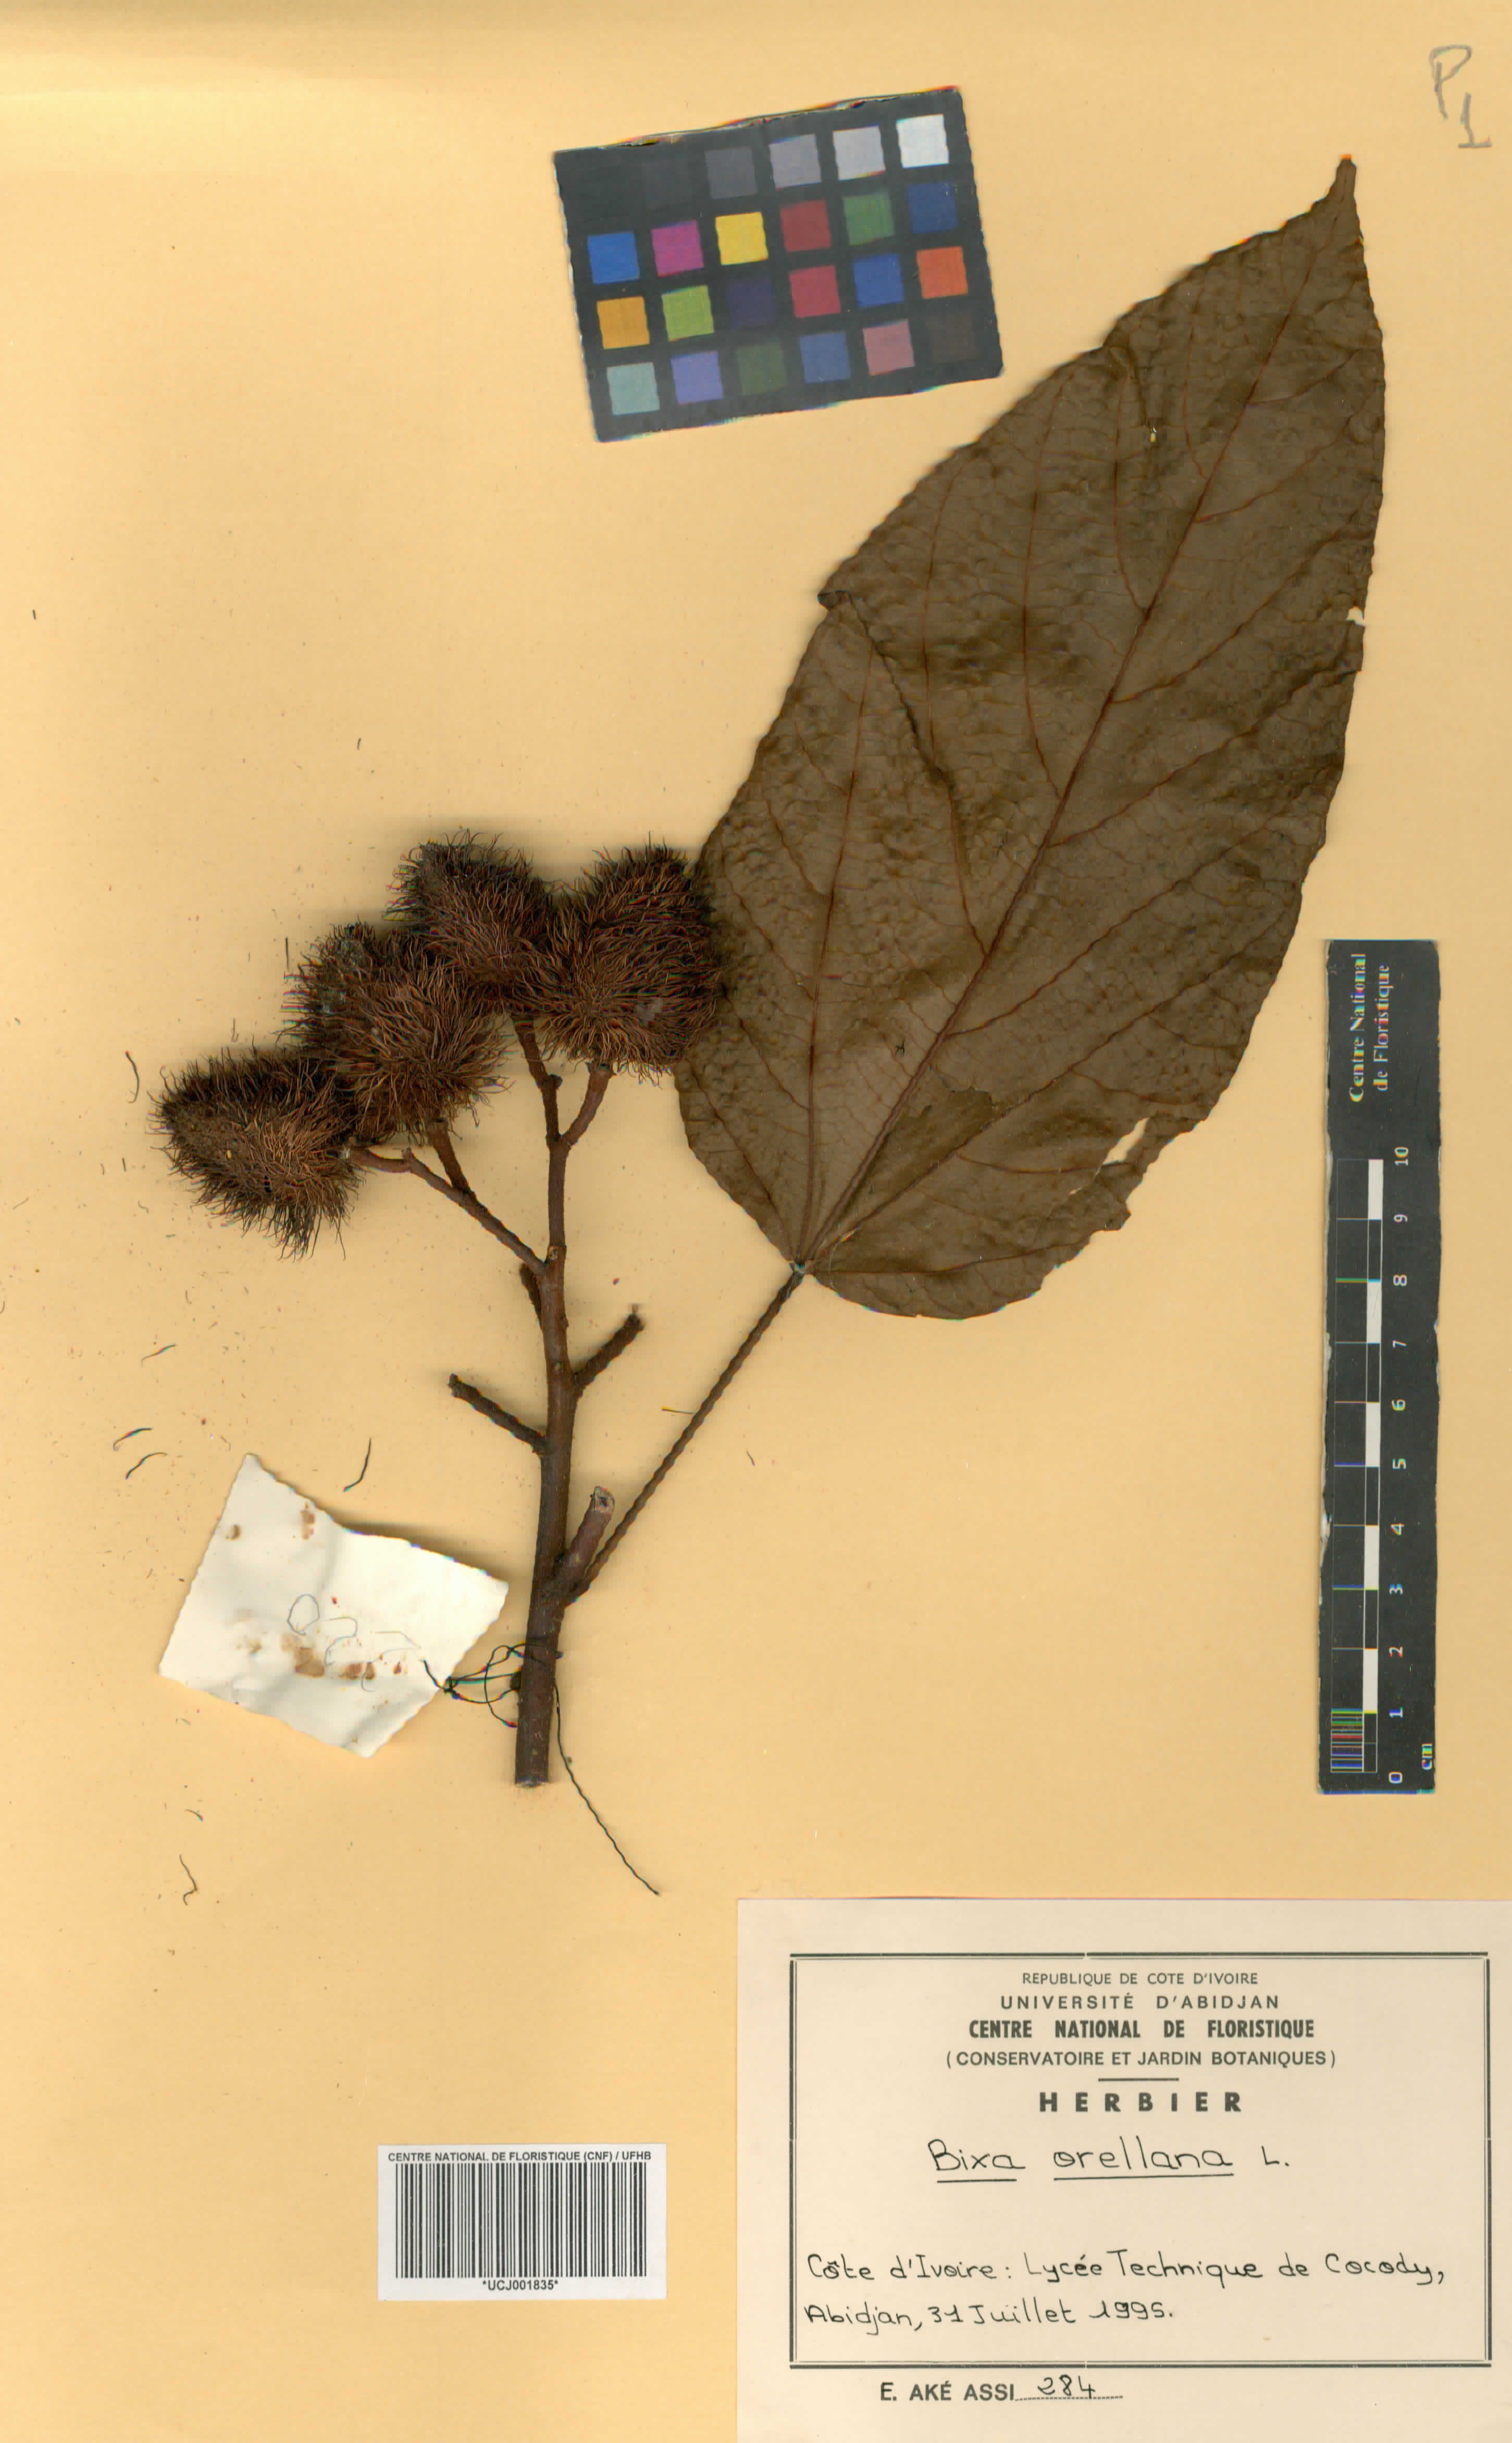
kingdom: Plantae
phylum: Tracheophyta
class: Magnoliopsida
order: Malvales
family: Bixaceae
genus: Bixa
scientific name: Bixa orellana
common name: Lipsticktree
